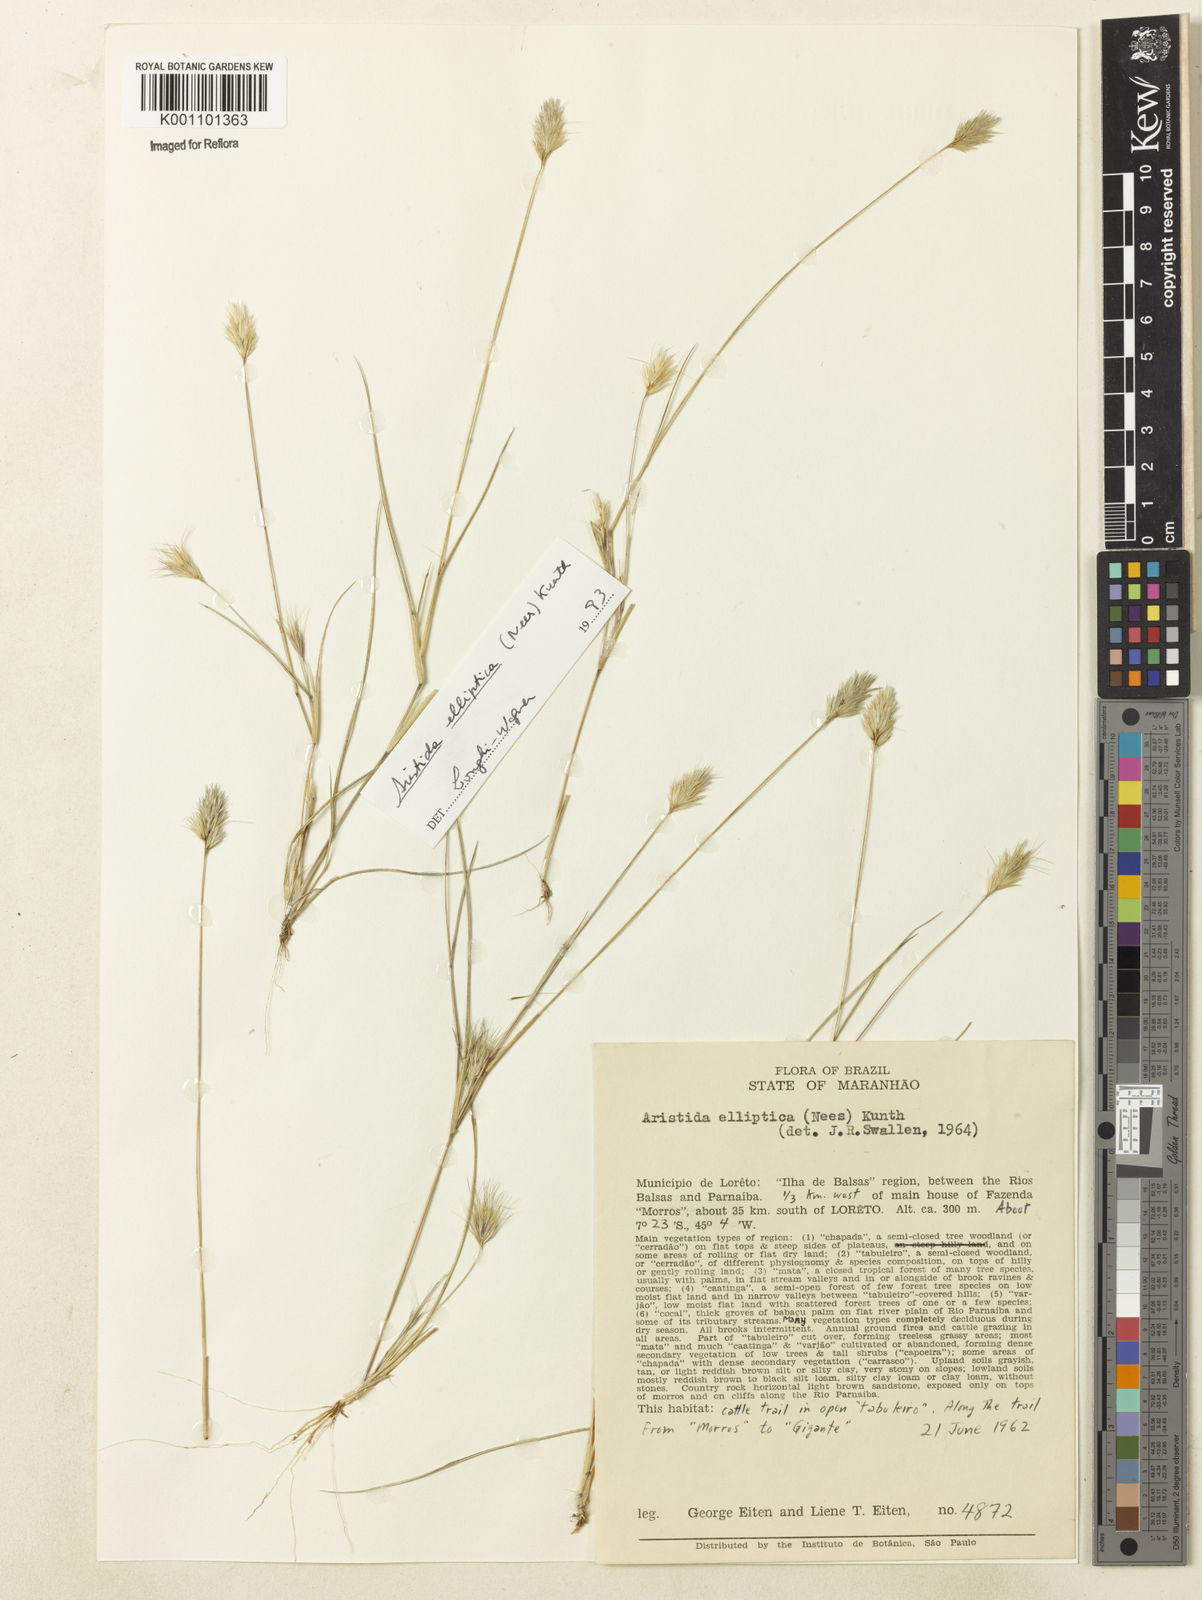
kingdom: Plantae
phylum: Tracheophyta
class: Liliopsida
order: Poales
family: Poaceae
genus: Aristida
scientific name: Aristida elliptica
